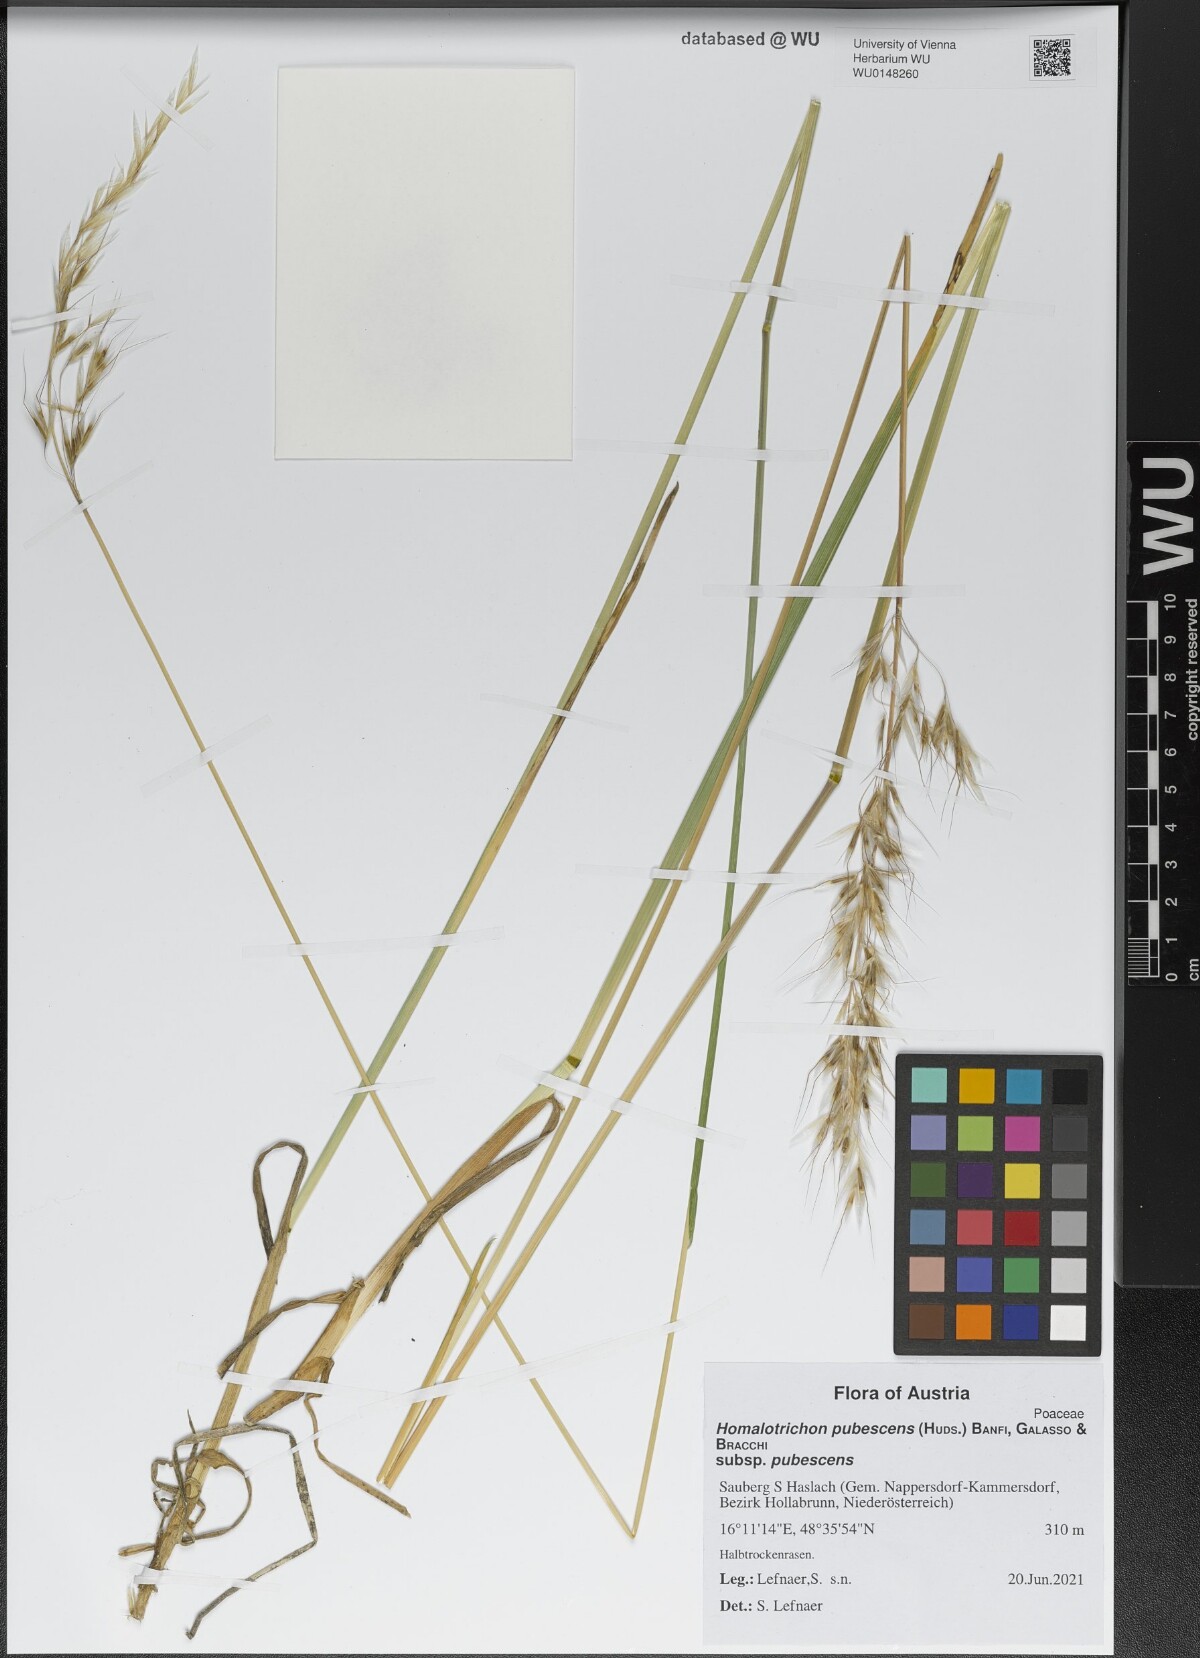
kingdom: Plantae
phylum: Tracheophyta
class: Liliopsida
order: Poales
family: Poaceae
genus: Avenula
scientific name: Avenula pubescens
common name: Downy alpine oatgrass
